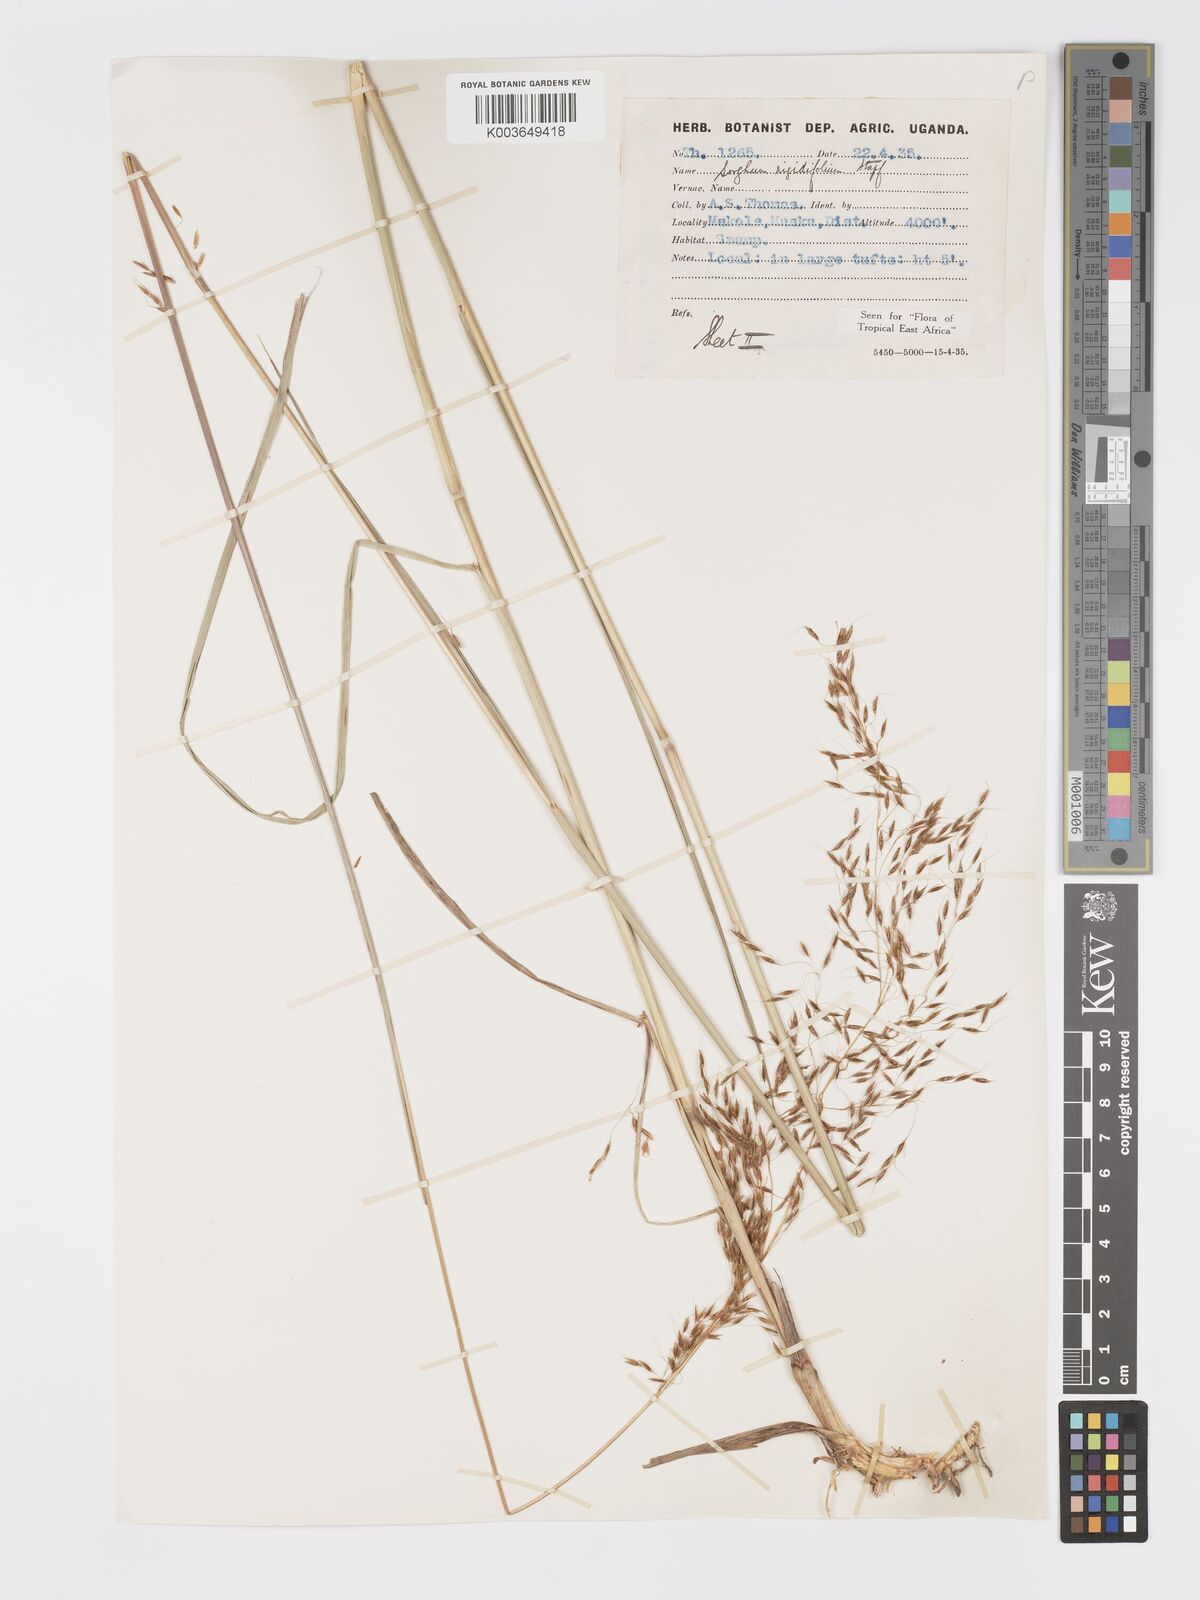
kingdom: Plantae
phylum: Tracheophyta
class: Liliopsida
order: Poales
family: Poaceae
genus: Sorghastrum
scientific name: Sorghastrum stipoides
